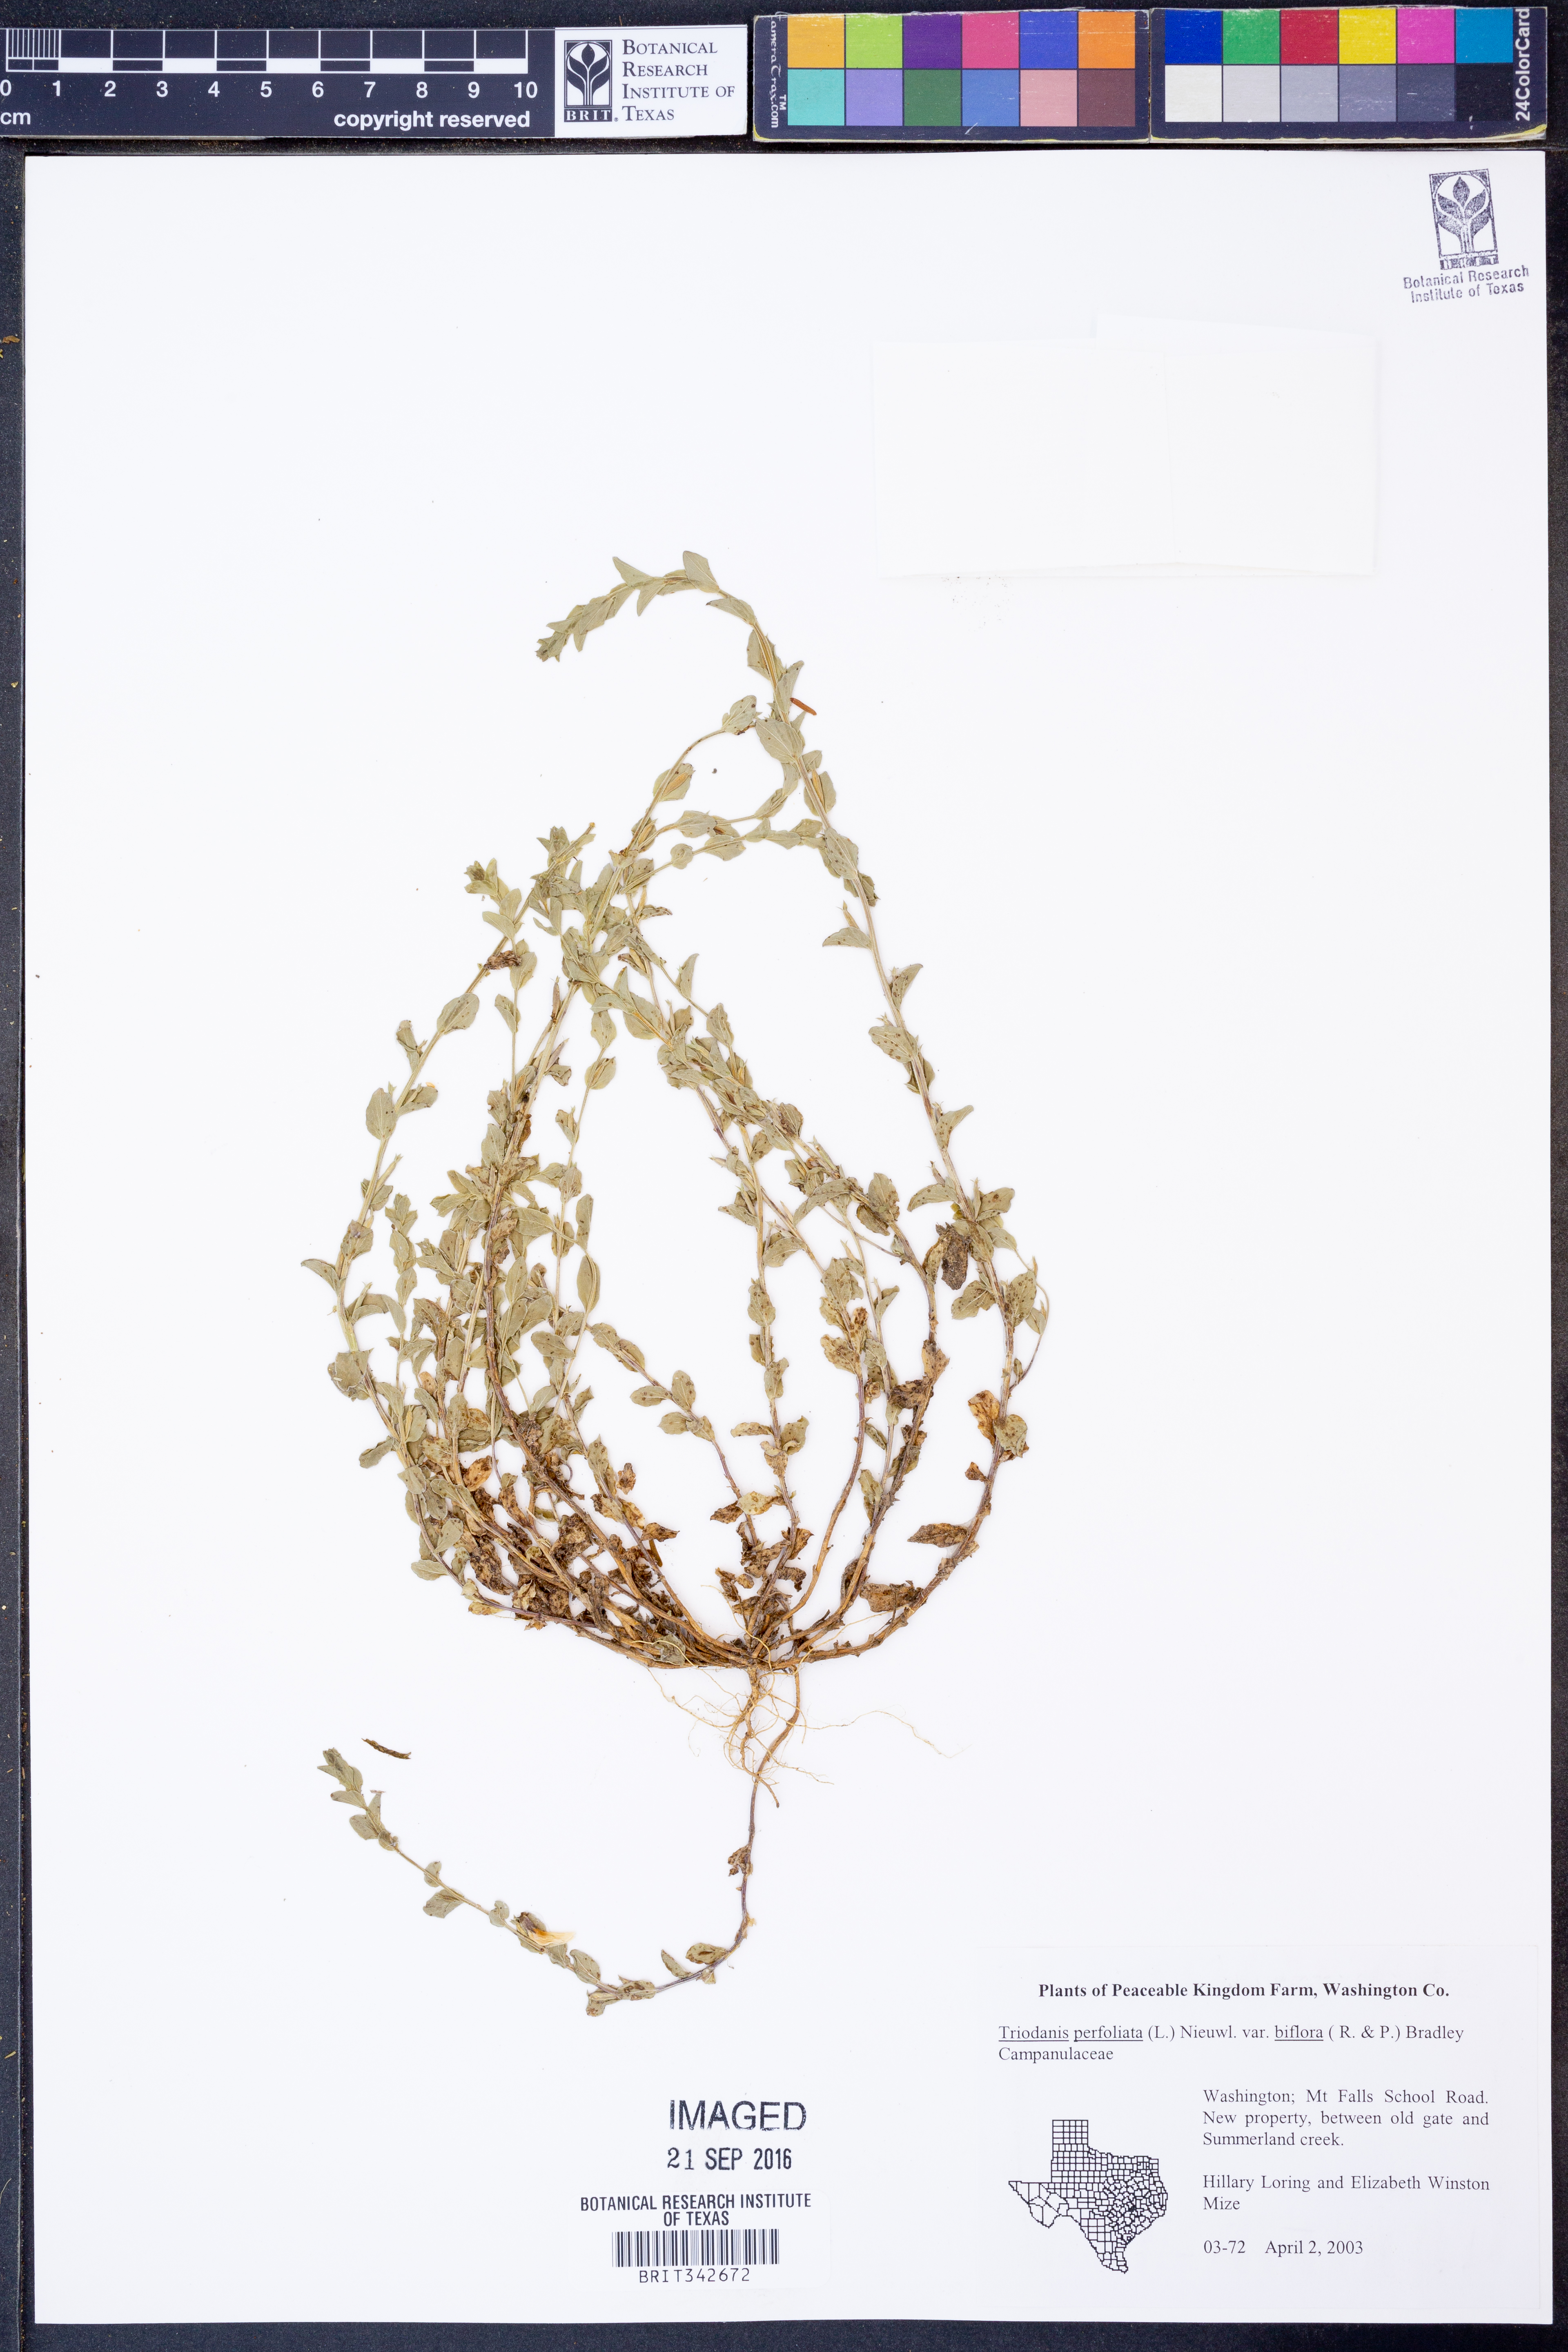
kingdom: Plantae
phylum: Tracheophyta
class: Magnoliopsida
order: Asterales
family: Campanulaceae
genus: Triodanis
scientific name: Triodanis perfoliata
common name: Clasping venus' looking-glass
